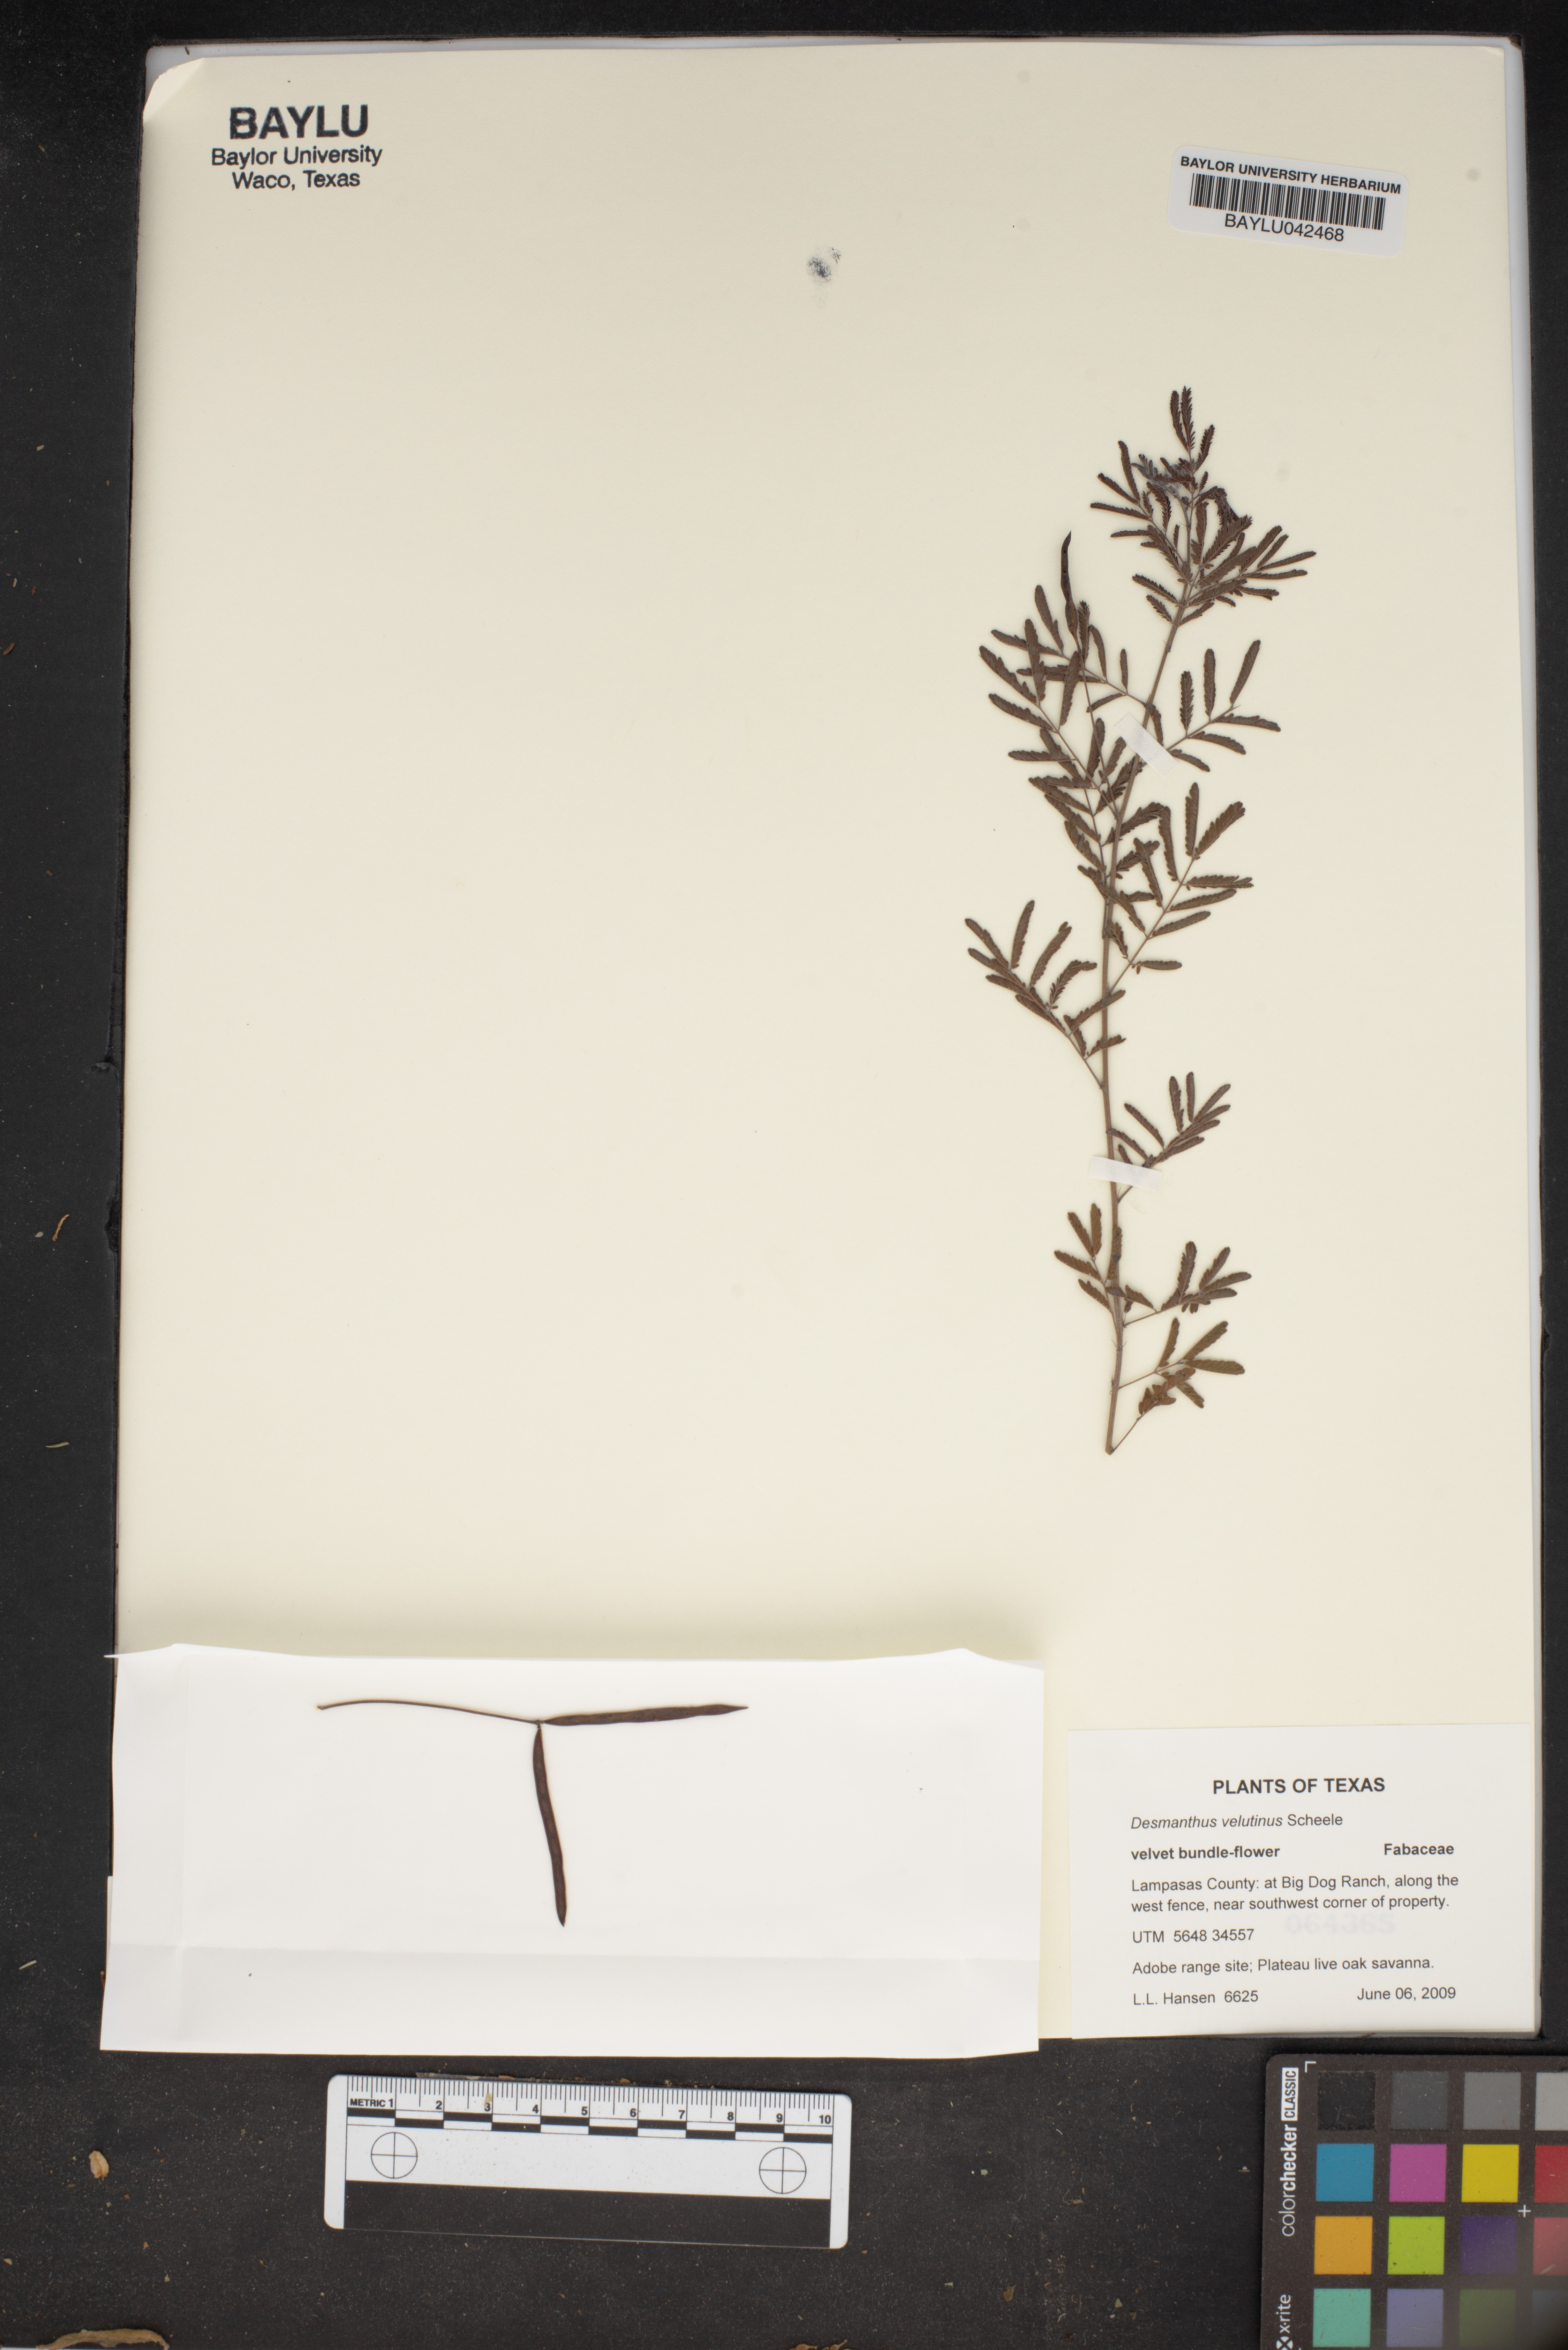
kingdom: Plantae
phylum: Tracheophyta
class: Magnoliopsida
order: Fabales
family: Fabaceae
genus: Desmanthus
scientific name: Desmanthus velutinus
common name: Velvet bundle-flower
